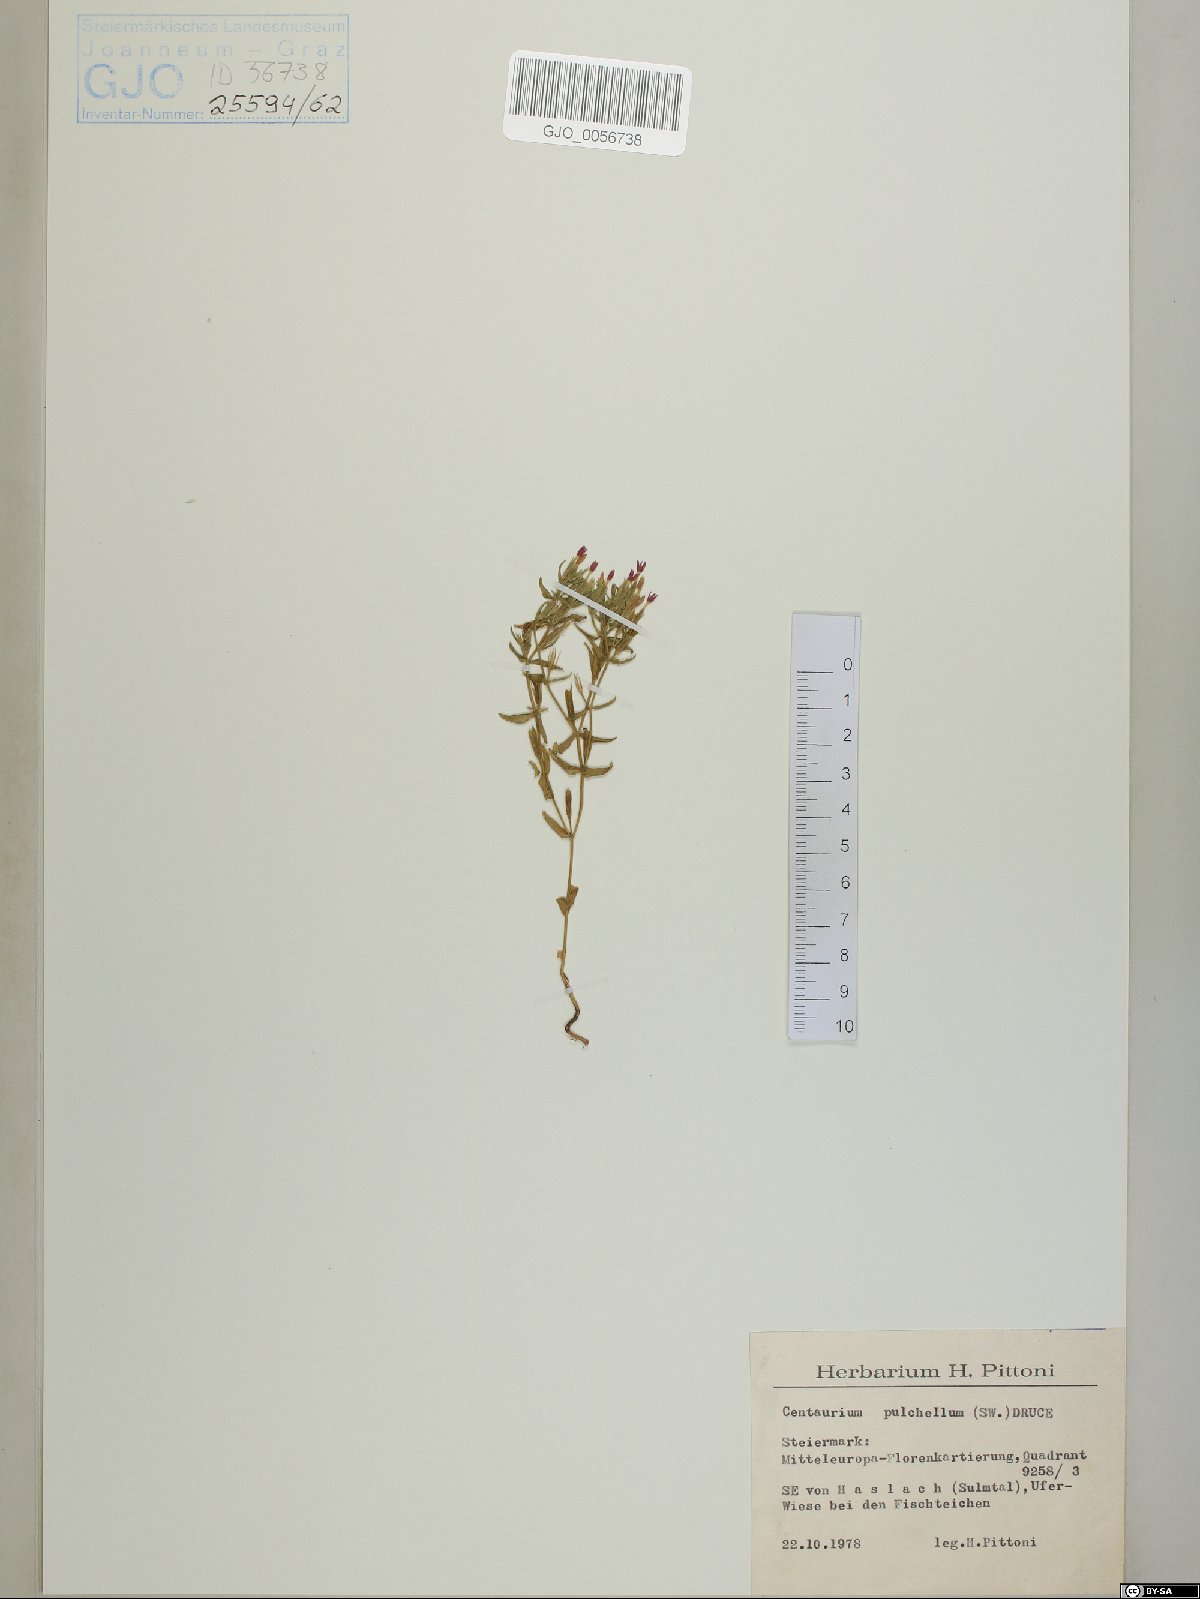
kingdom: Plantae
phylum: Tracheophyta
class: Magnoliopsida
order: Gentianales
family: Gentianaceae
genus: Centaurium
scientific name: Centaurium pulchellum
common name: Lesser centaury
